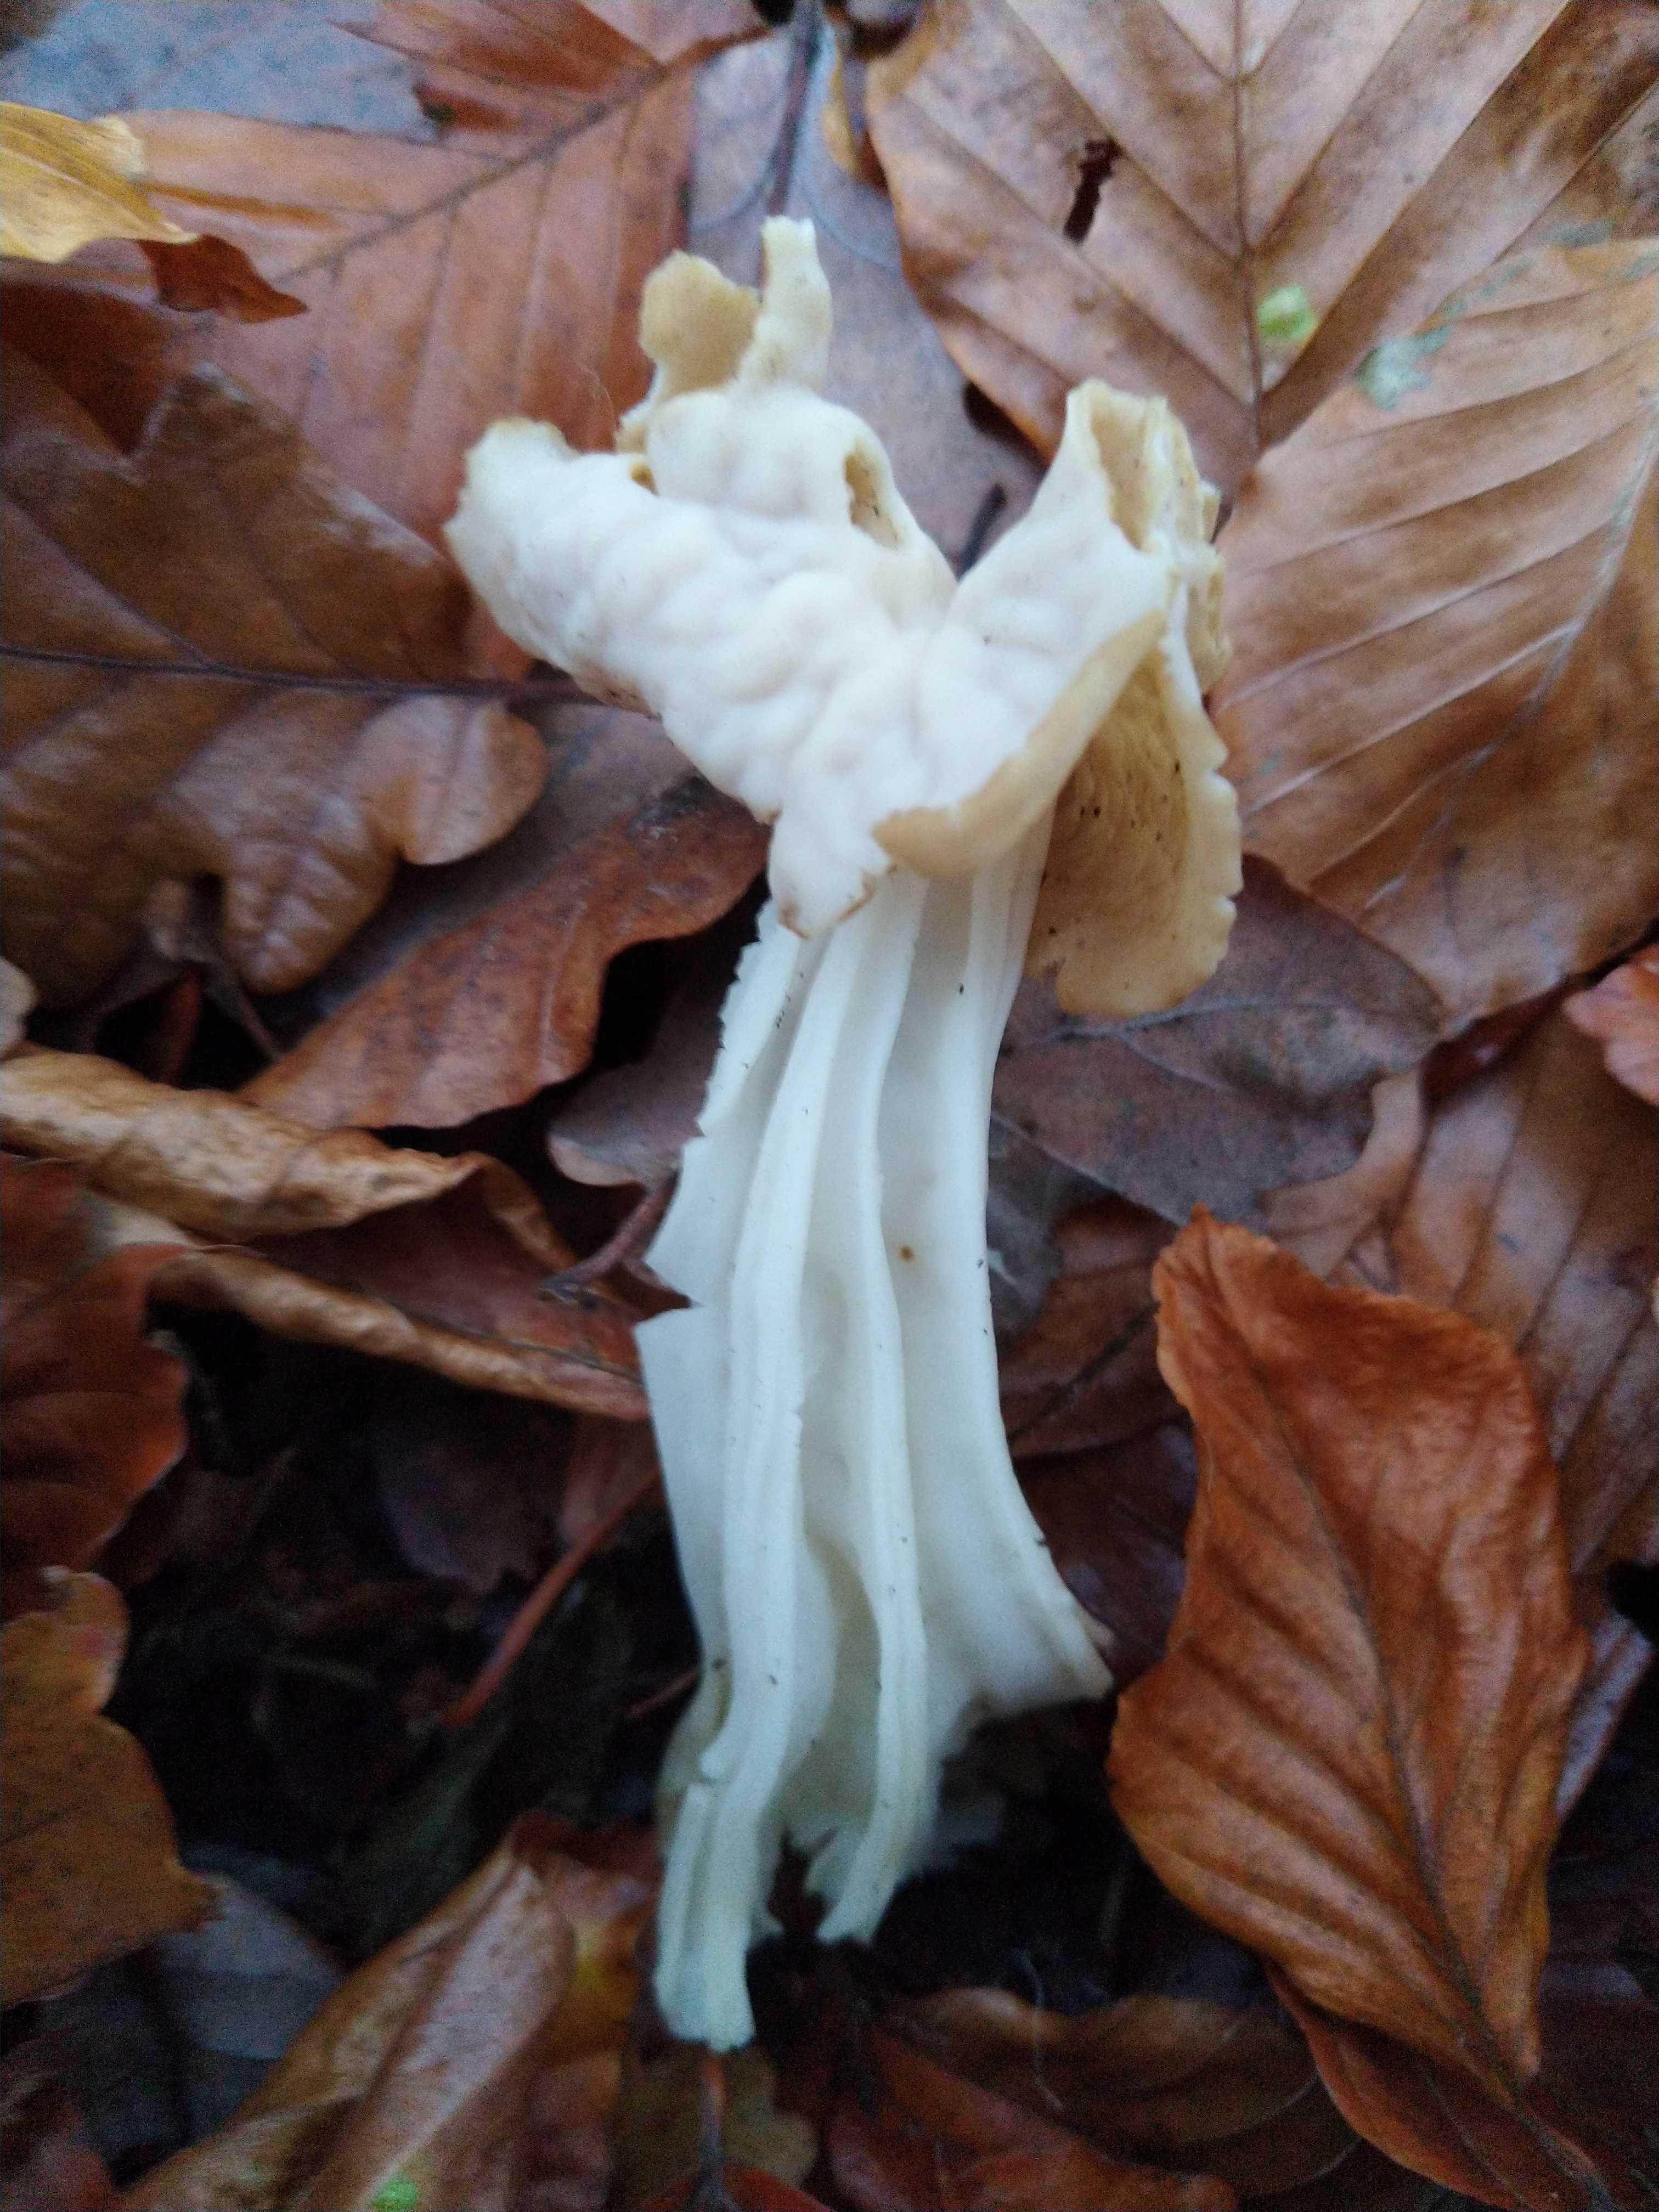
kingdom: Fungi
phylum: Ascomycota
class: Pezizomycetes
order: Pezizales
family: Helvellaceae
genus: Helvella
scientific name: Helvella crispa
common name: kruset foldhat
